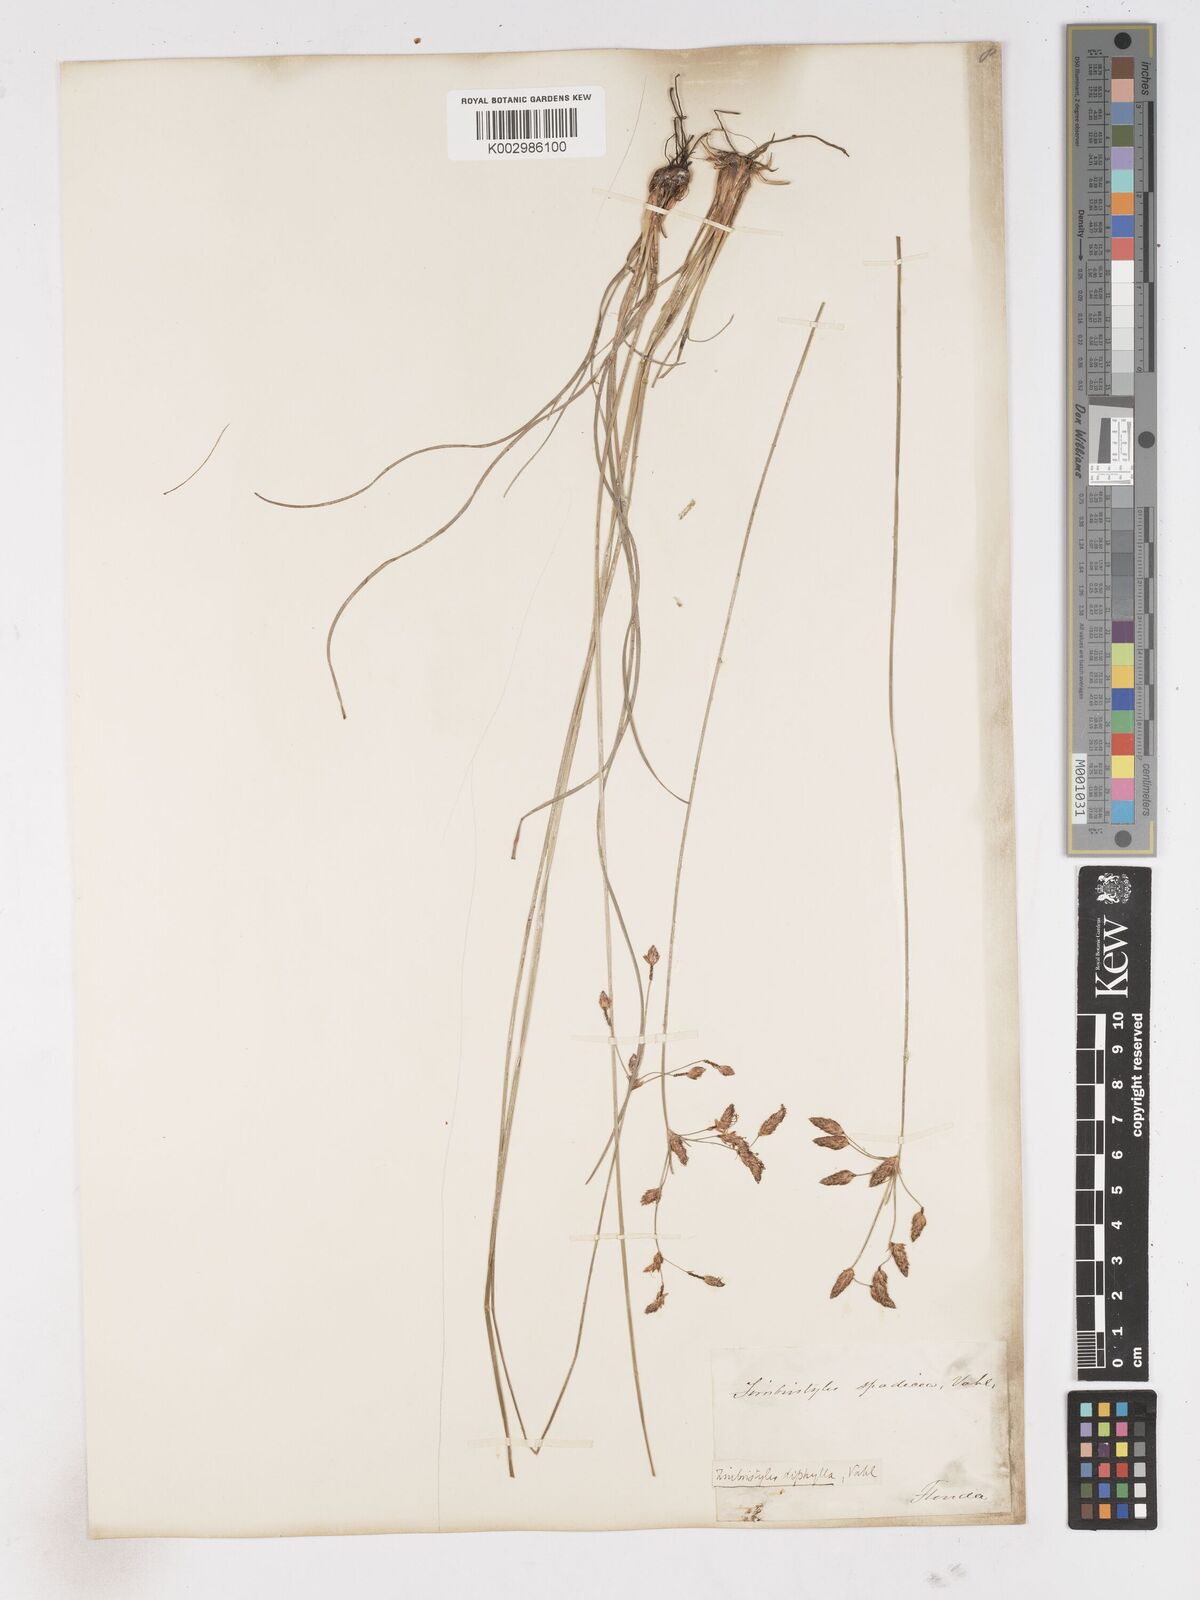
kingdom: Plantae
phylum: Tracheophyta
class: Liliopsida
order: Poales
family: Cyperaceae
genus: Fimbristylis
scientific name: Fimbristylis dichotoma
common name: Forked fimbry
